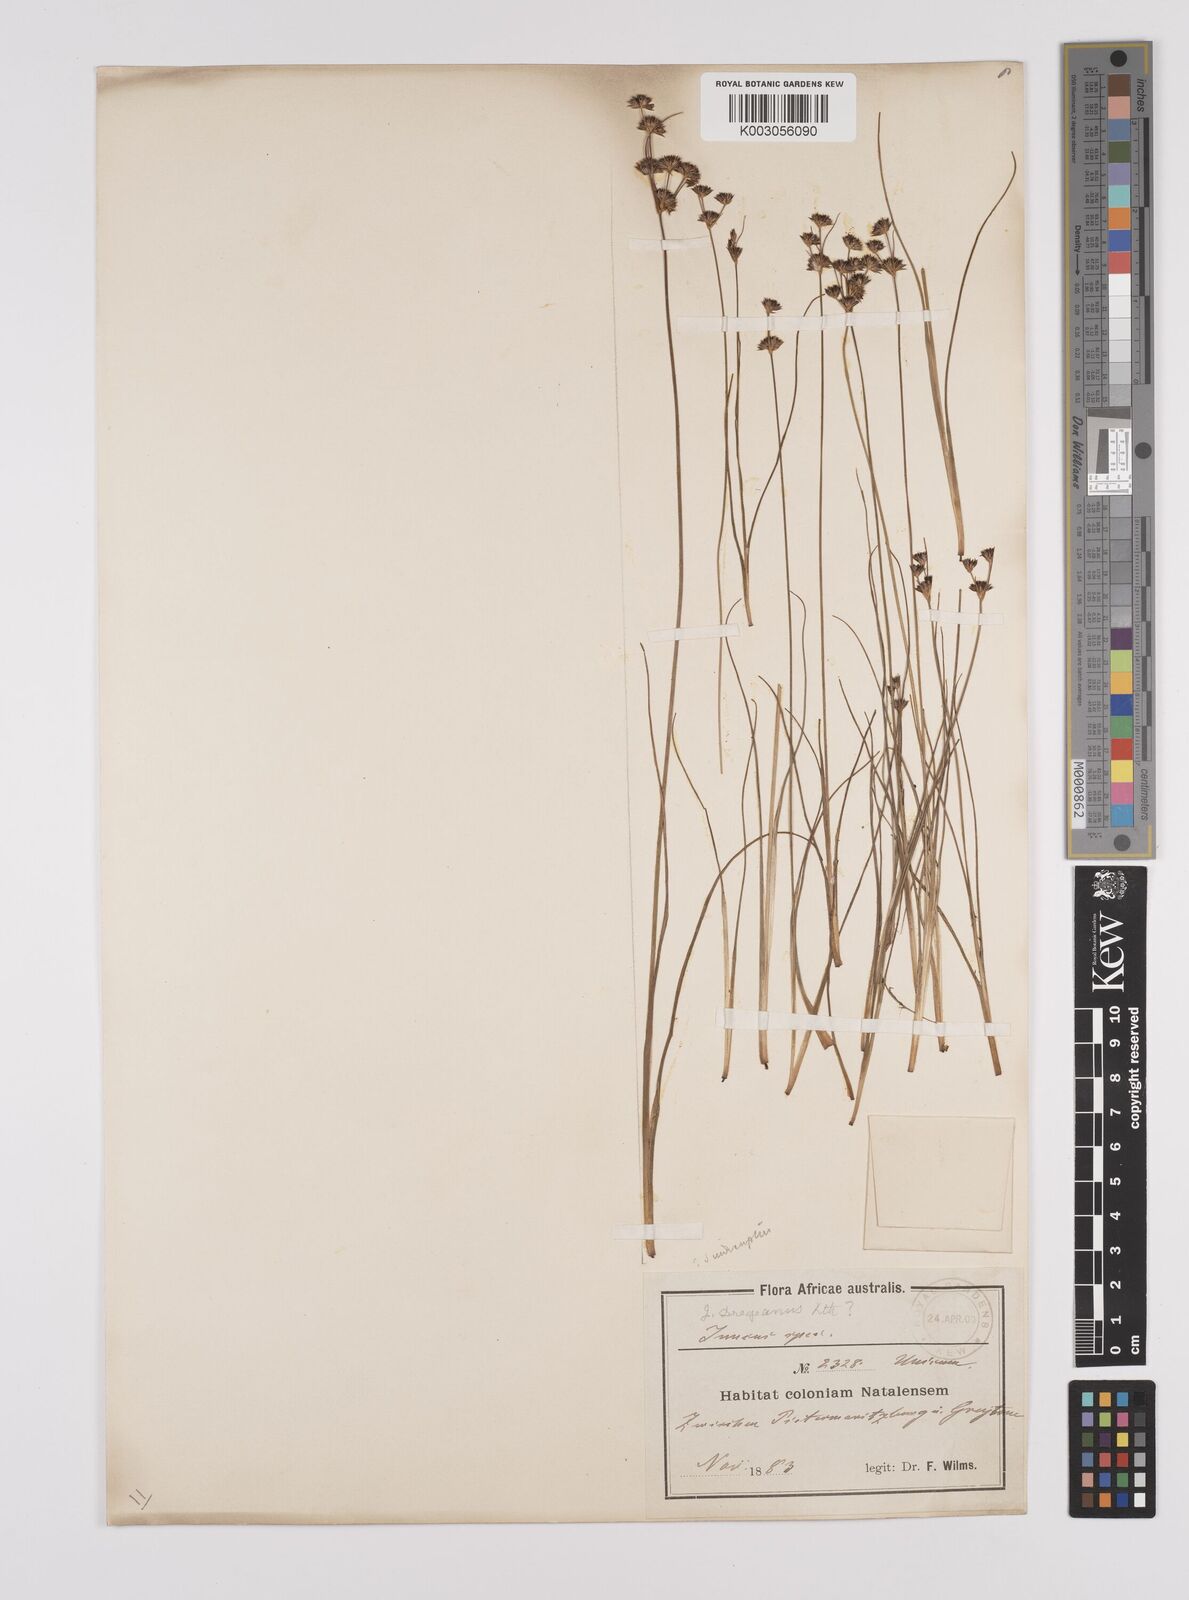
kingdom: Plantae
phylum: Tracheophyta
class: Liliopsida
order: Poales
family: Juncaceae
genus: Juncus
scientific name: Juncus dregeanus
